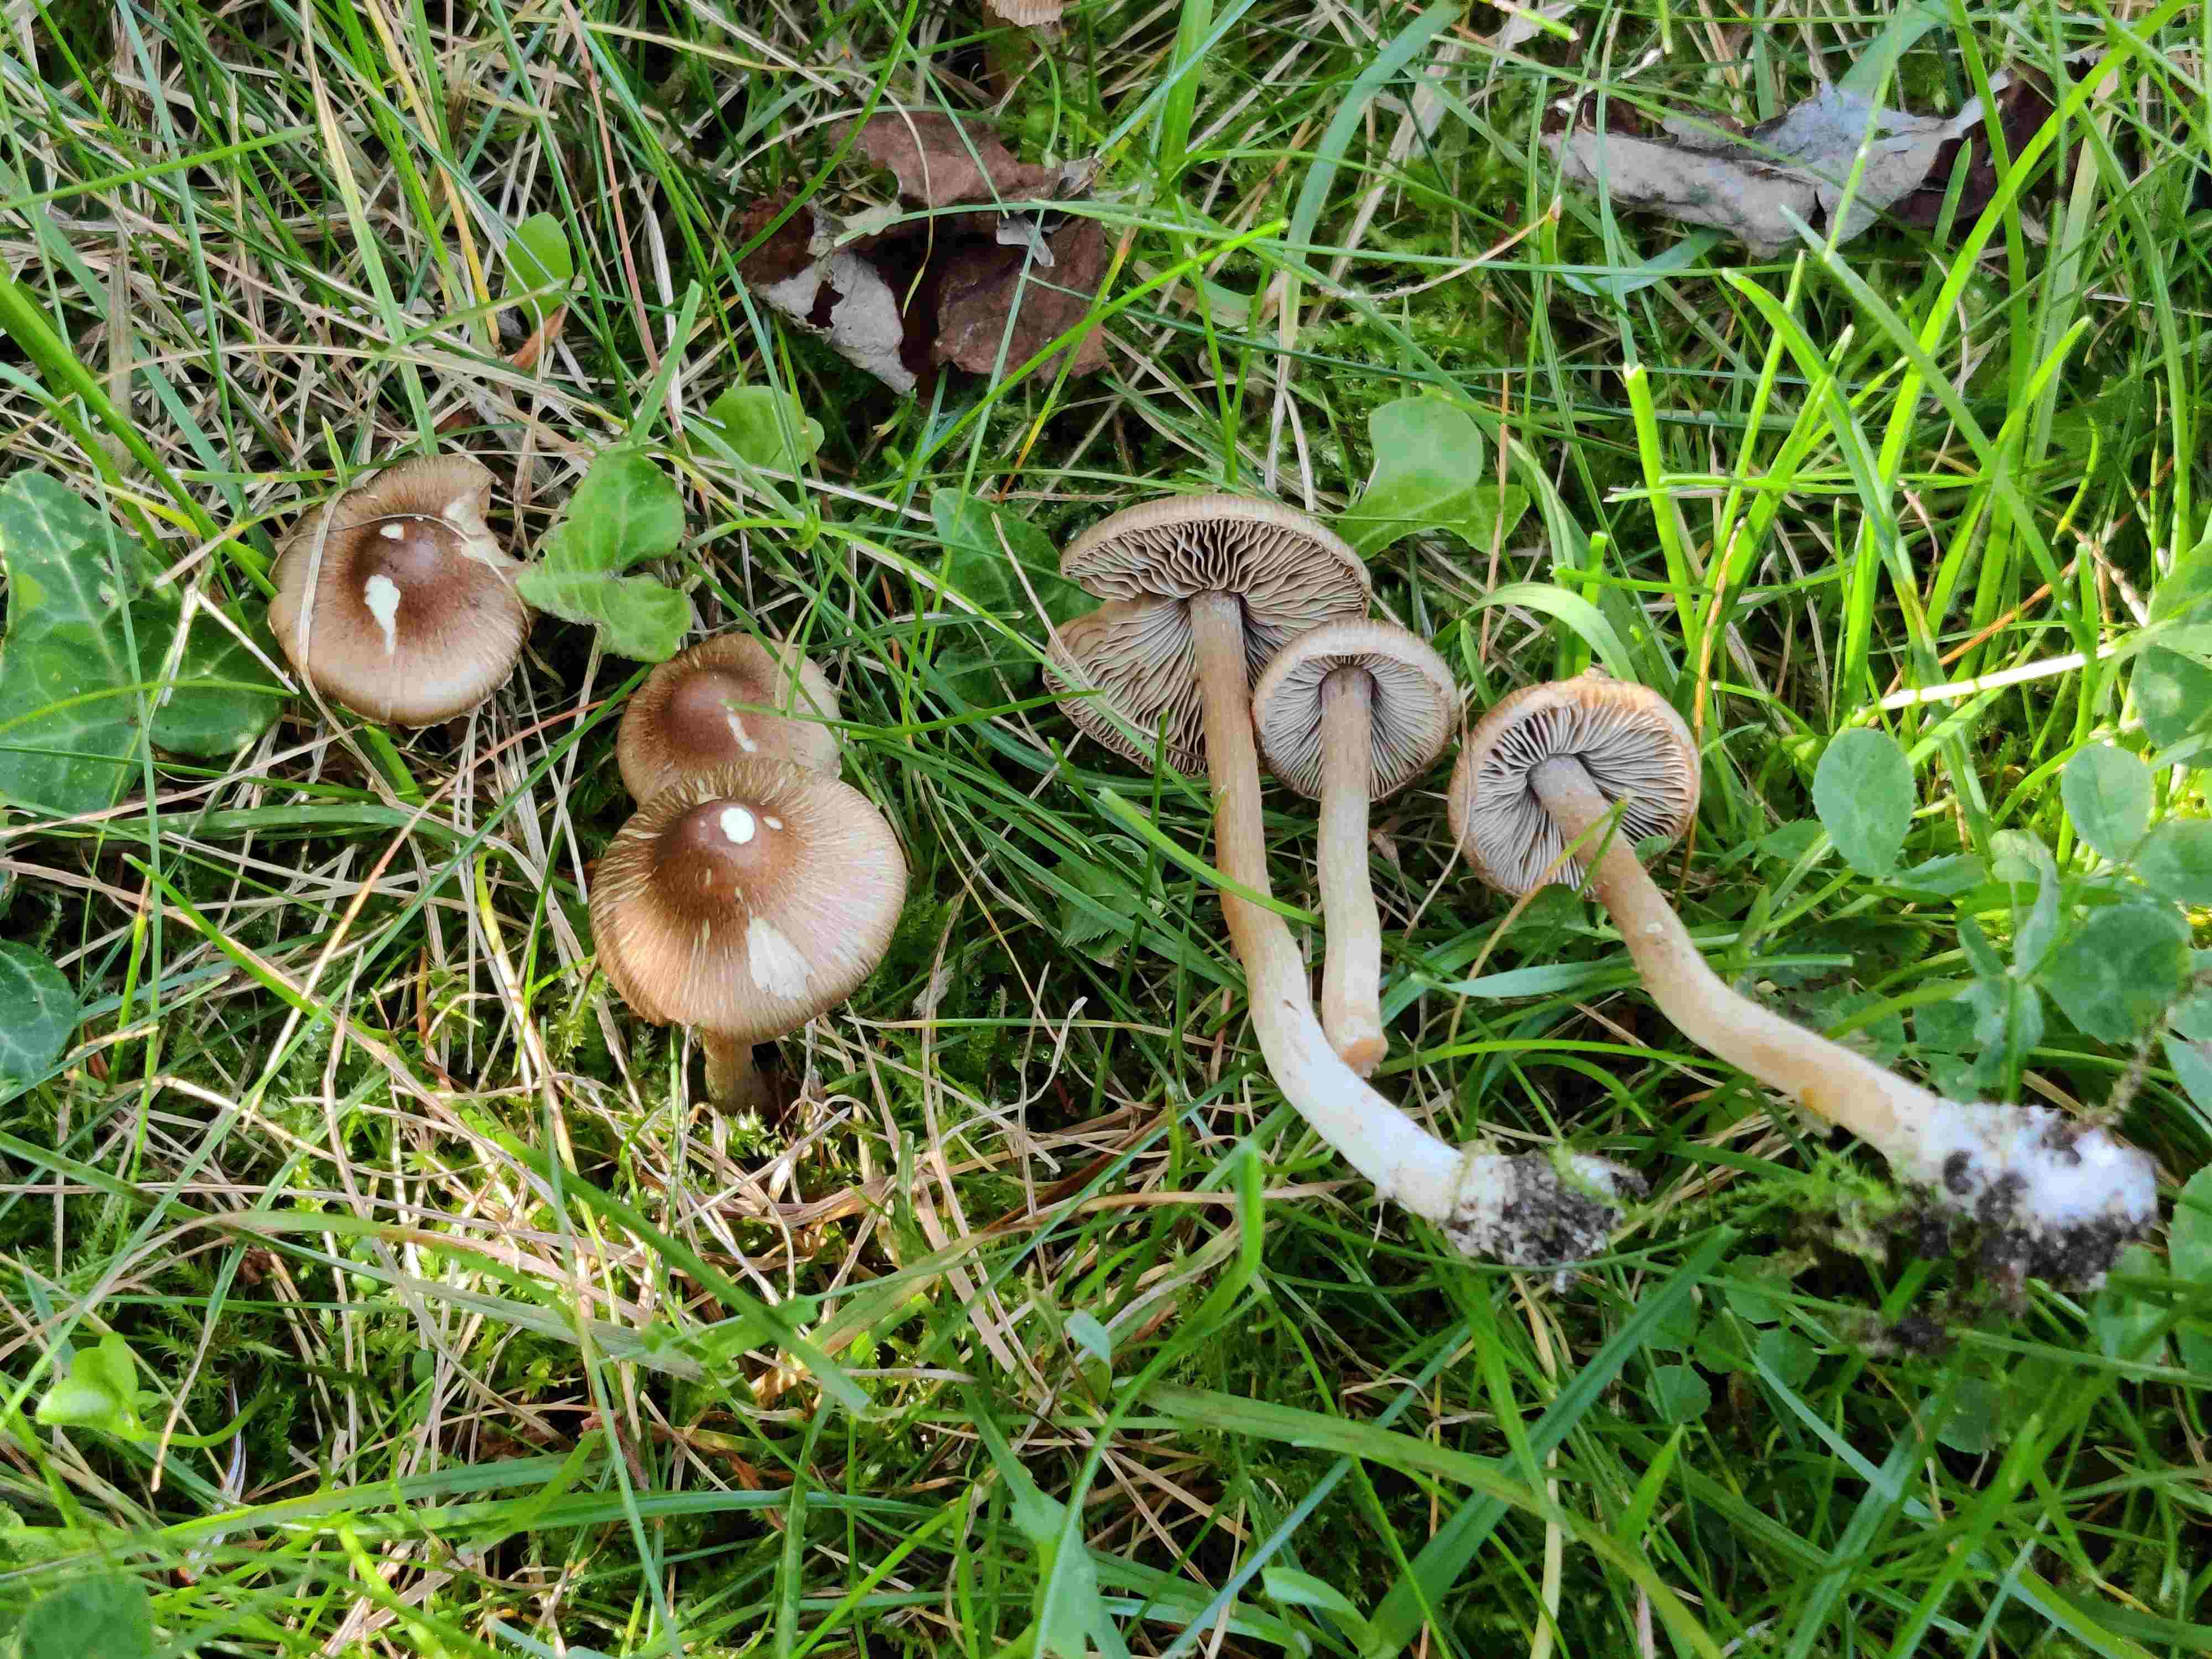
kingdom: Fungi
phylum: Basidiomycota
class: Agaricomycetes
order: Agaricales
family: Inocybaceae
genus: Inocybe
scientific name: Inocybe
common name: trævlhat
